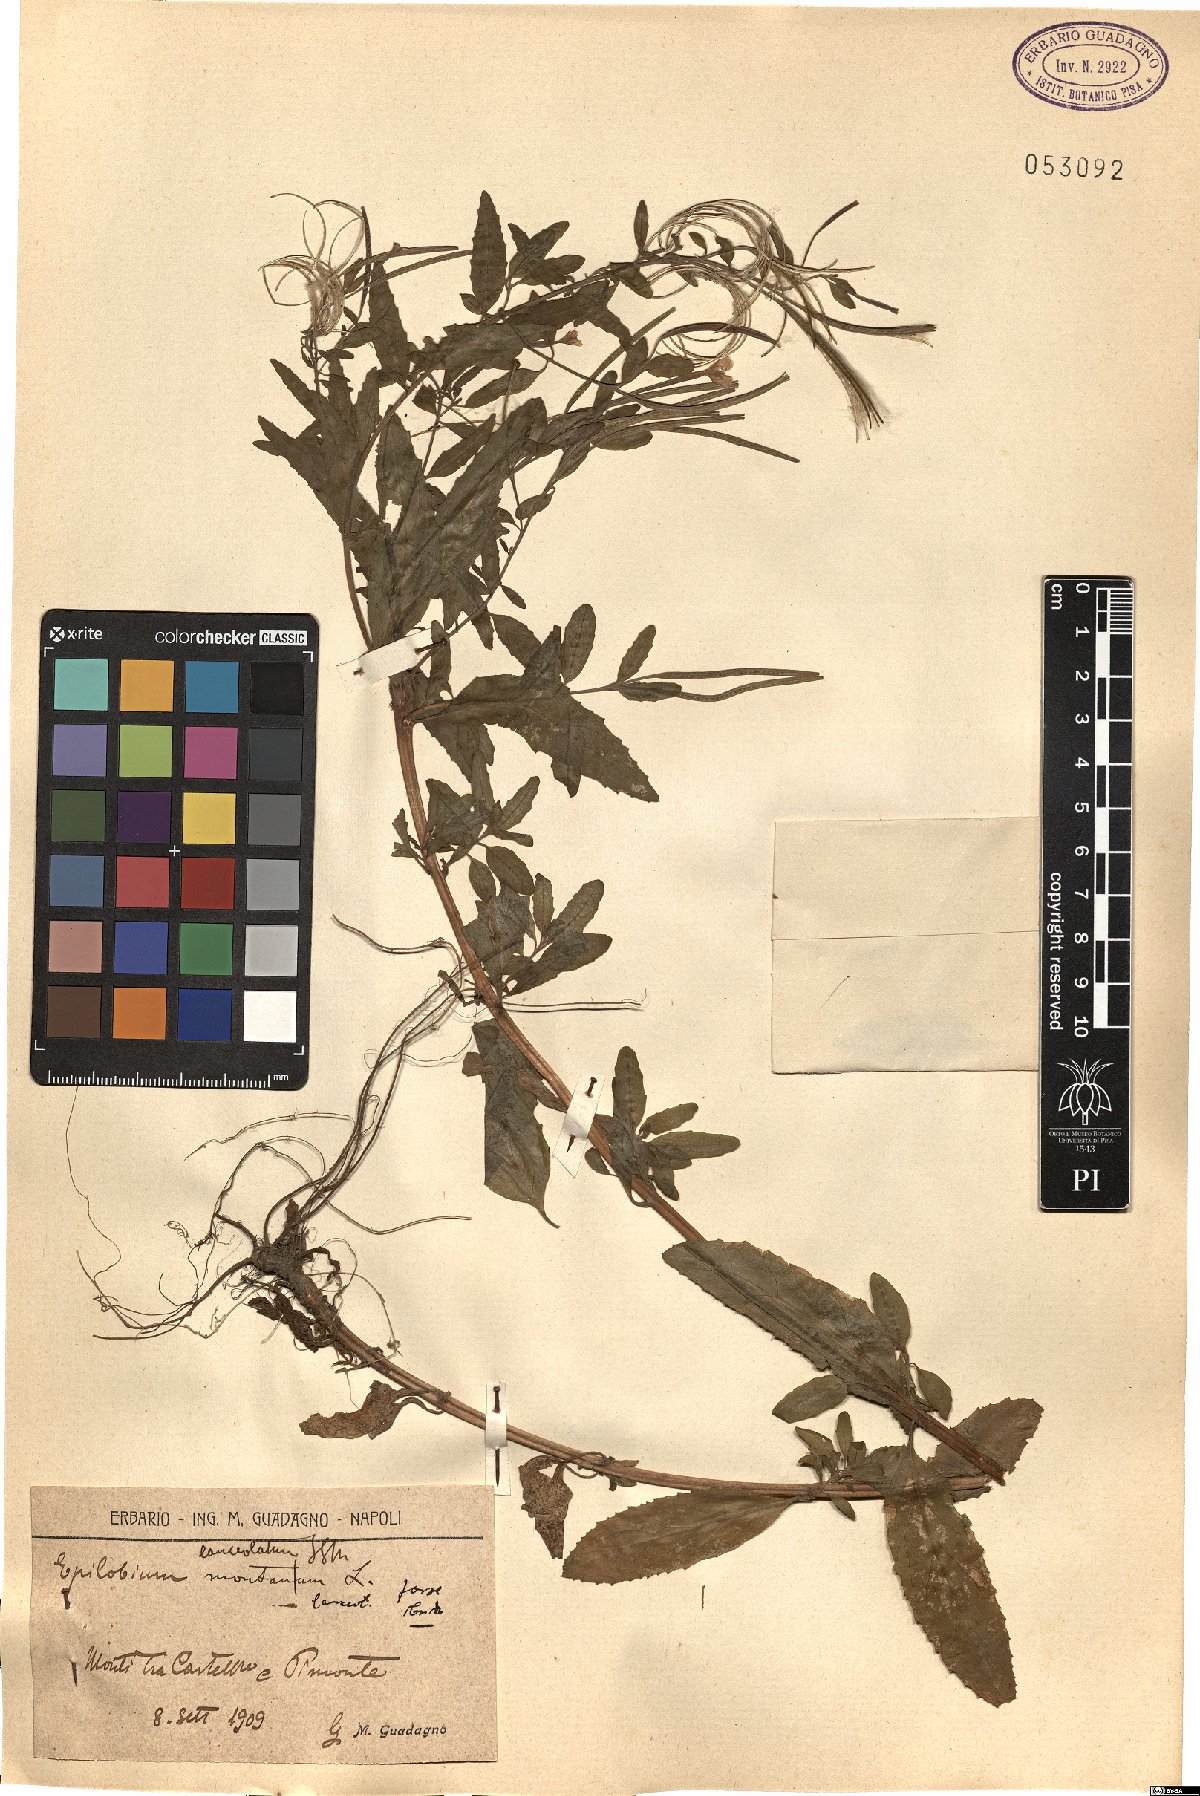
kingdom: Plantae
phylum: Tracheophyta
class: Magnoliopsida
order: Myrtales
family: Onagraceae
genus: Epilobium
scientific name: Epilobium lanceolatum
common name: Spear-leaved willowherb
